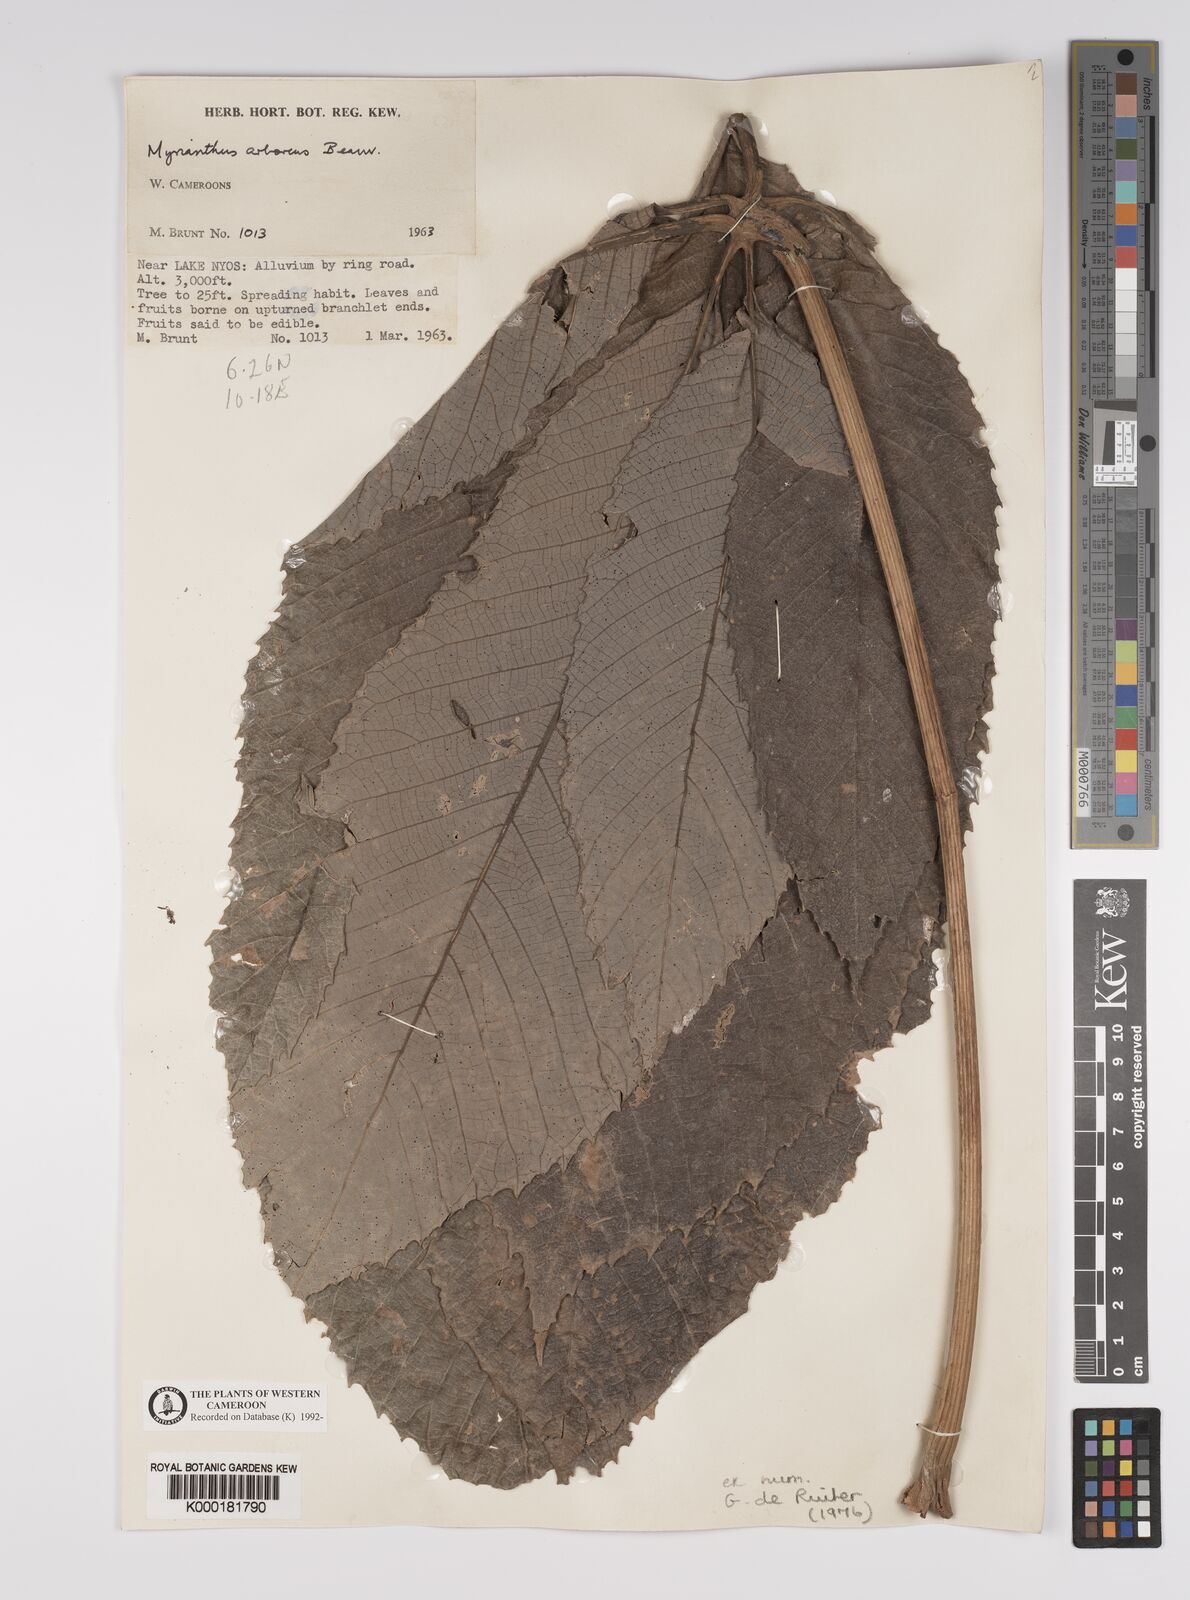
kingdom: Plantae
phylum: Tracheophyta
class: Magnoliopsida
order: Rosales
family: Urticaceae
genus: Myrianthus
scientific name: Myrianthus arboreus
